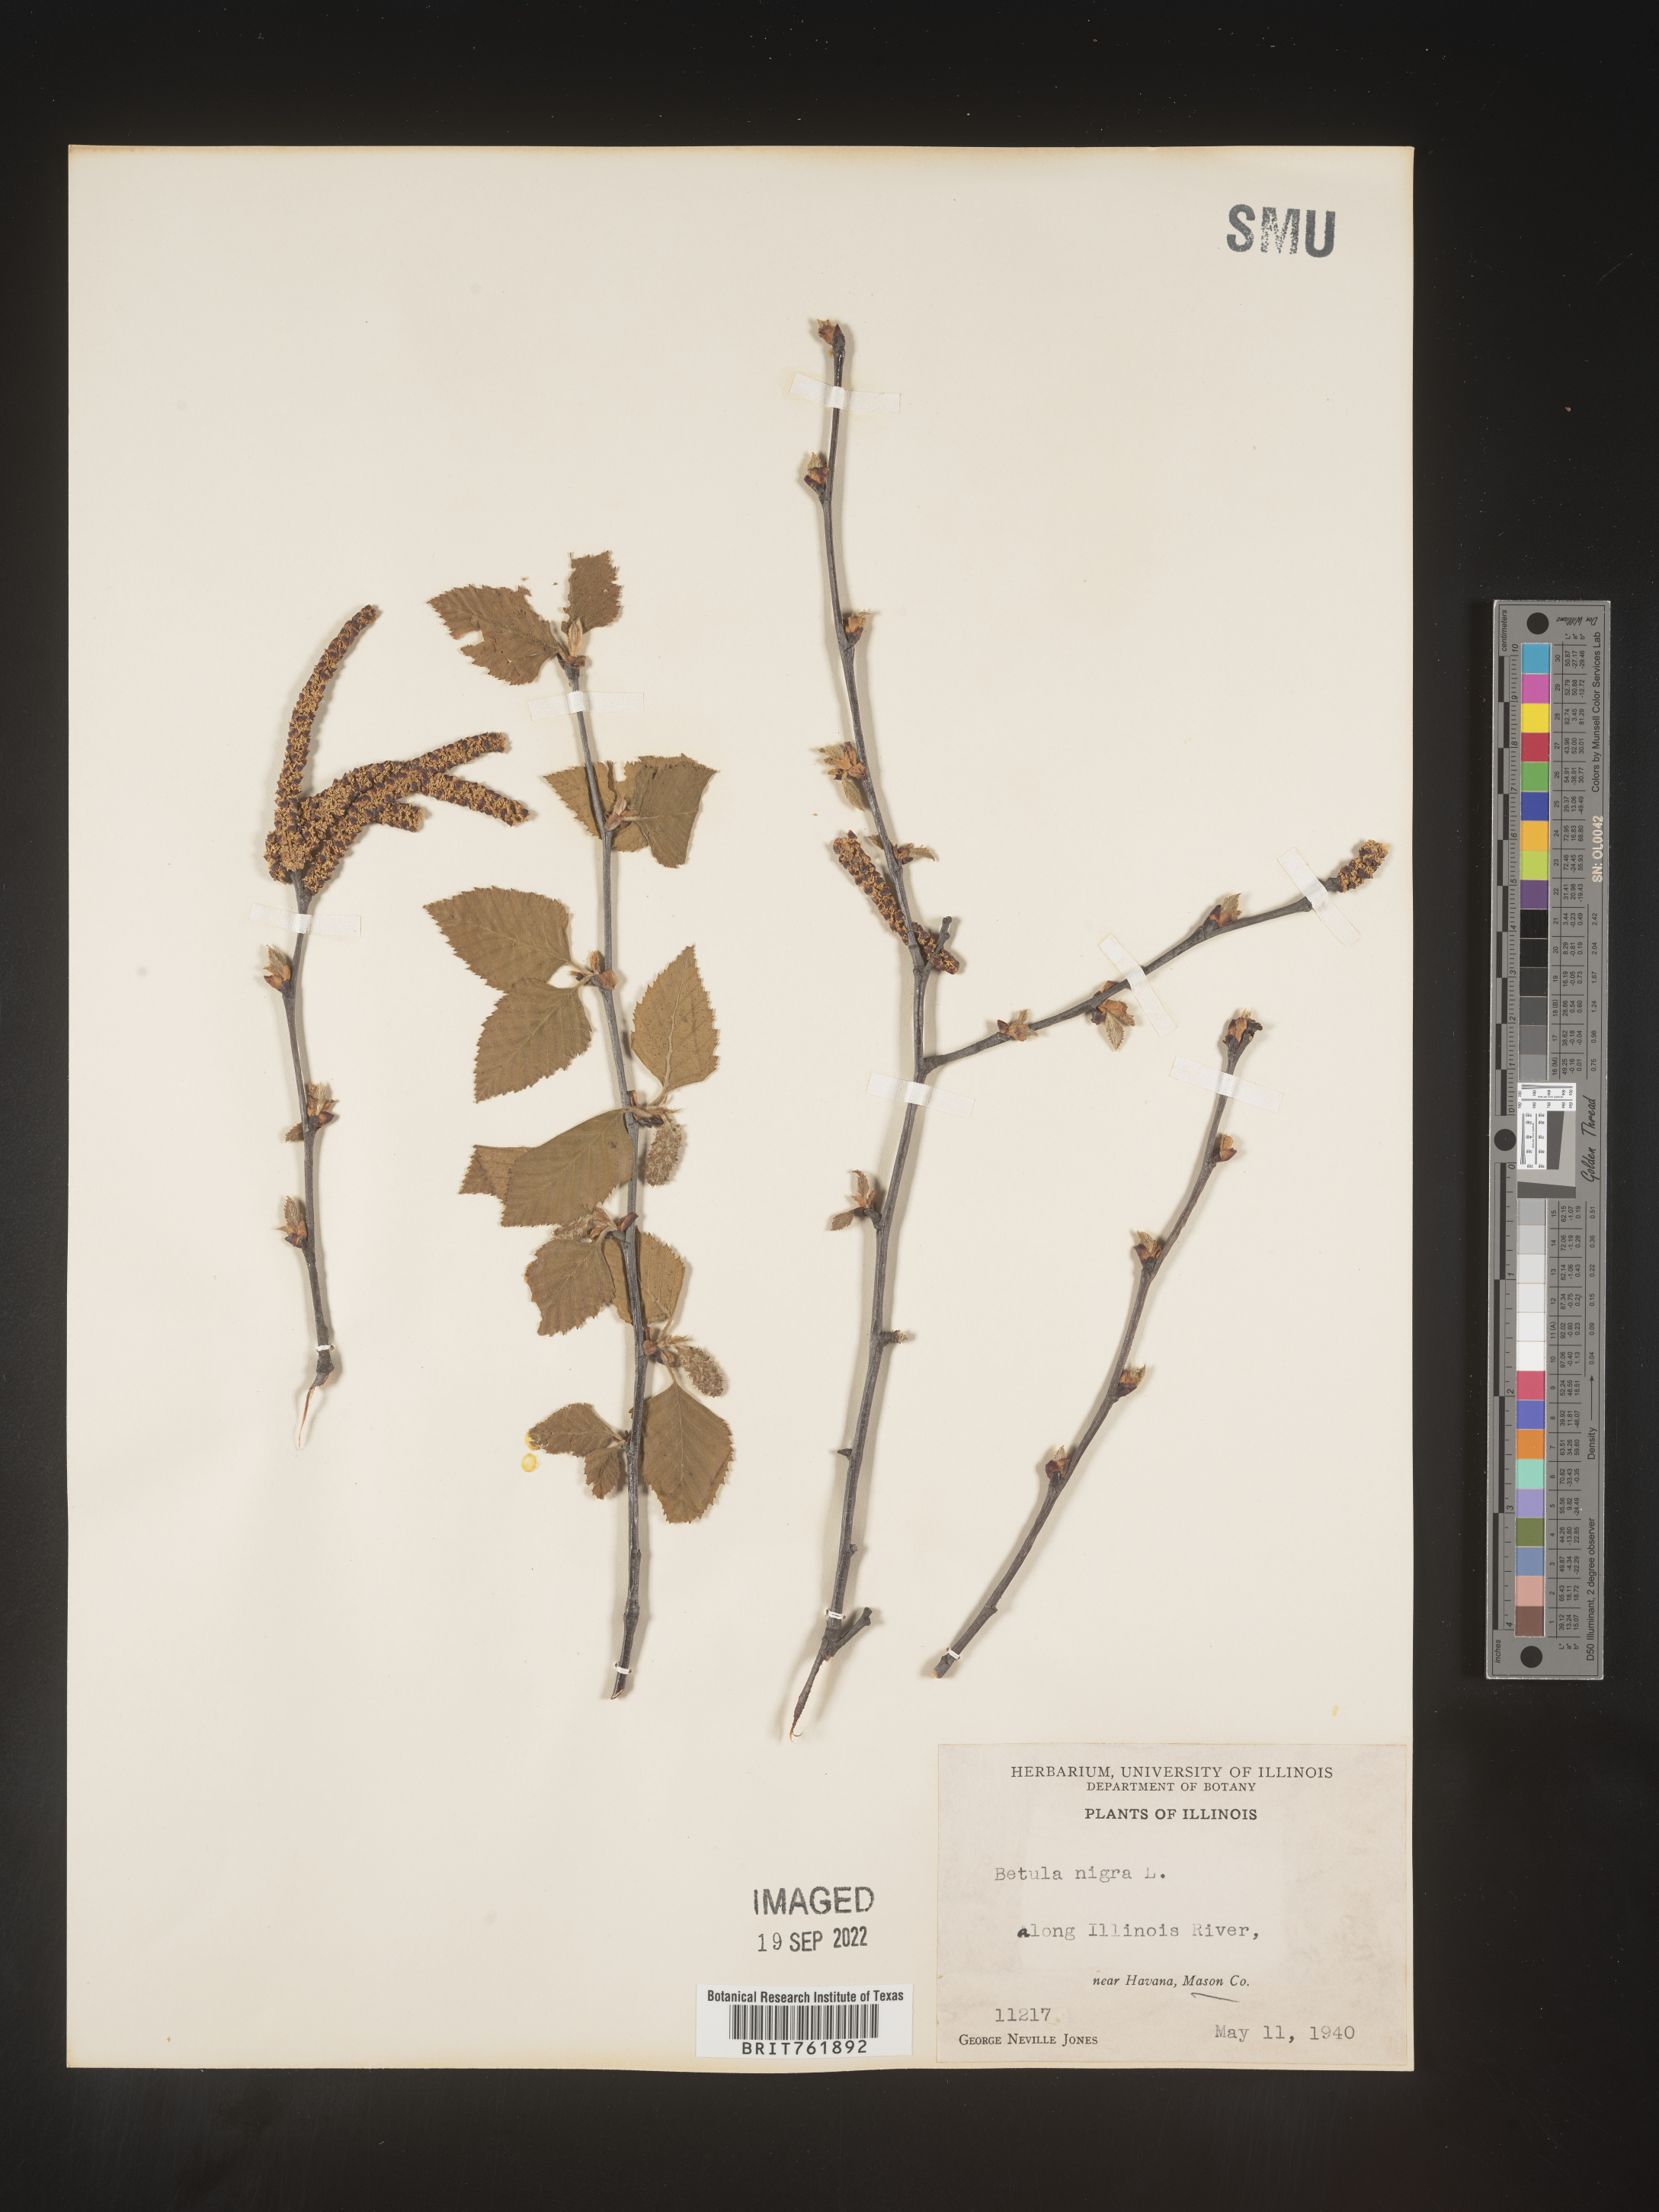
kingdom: Plantae
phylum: Tracheophyta
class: Magnoliopsida
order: Fagales
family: Betulaceae
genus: Betula
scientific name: Betula nigra
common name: Black birch
